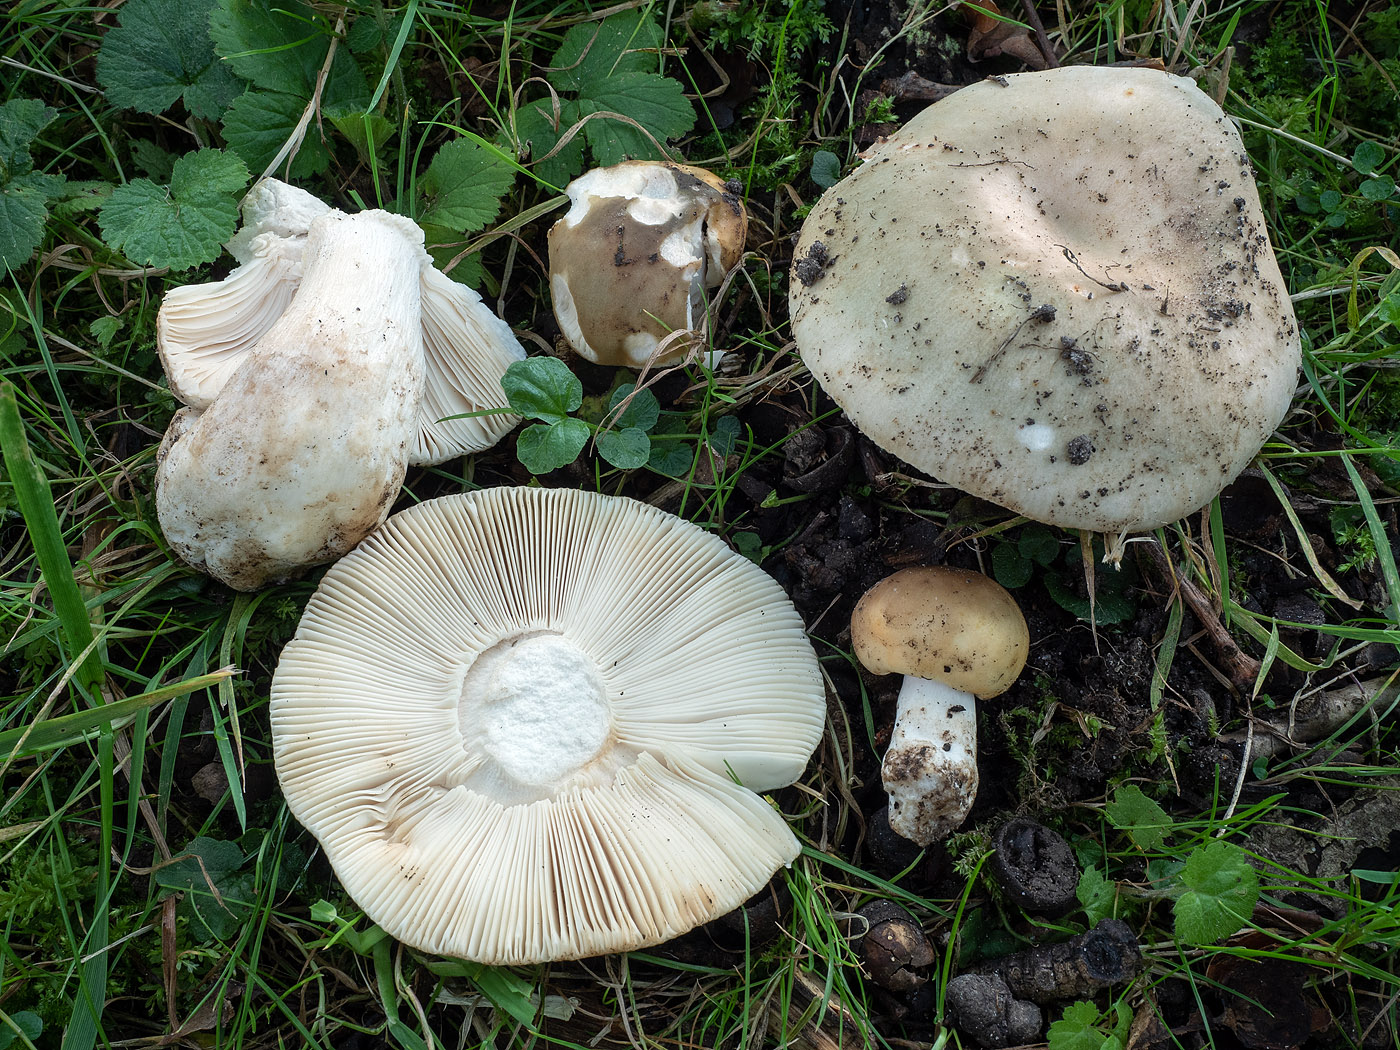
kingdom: Fungi
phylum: Basidiomycota
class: Agaricomycetes
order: Russulales
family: Russulaceae
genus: Russula
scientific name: Russula faustiana
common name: olivengrå skørhat
